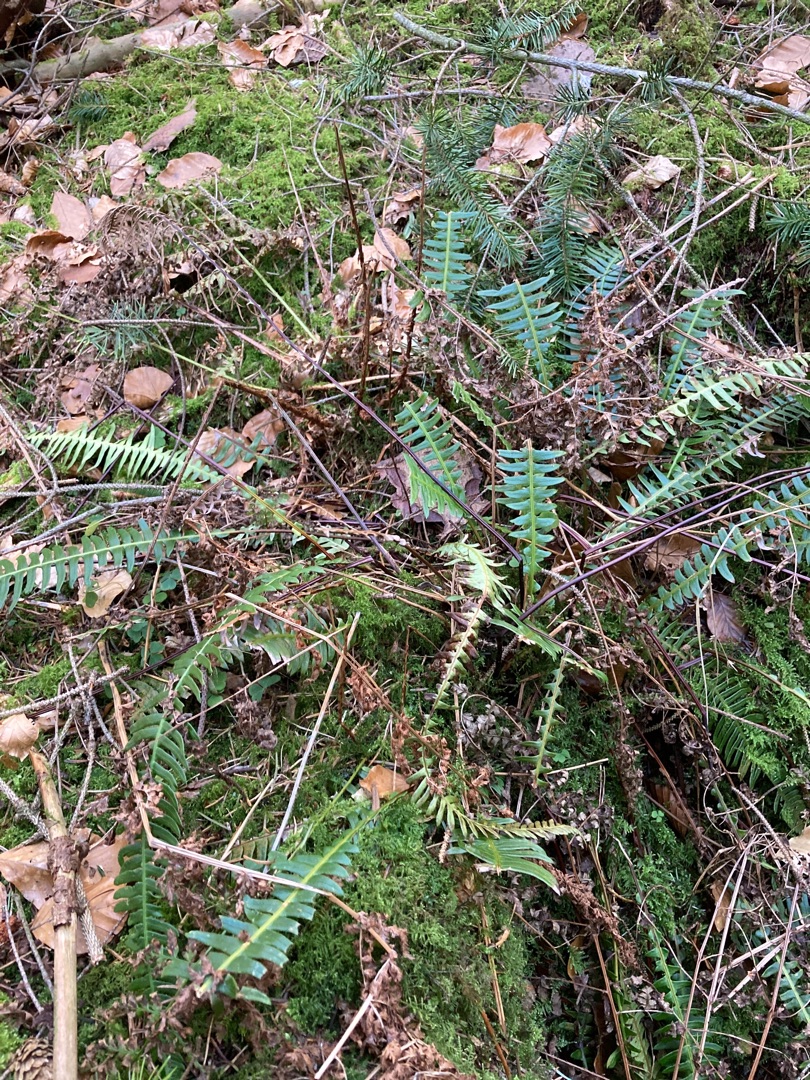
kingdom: Plantae
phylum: Tracheophyta
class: Polypodiopsida
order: Polypodiales
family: Blechnaceae
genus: Struthiopteris
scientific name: Struthiopteris spicant
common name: Kambregne
